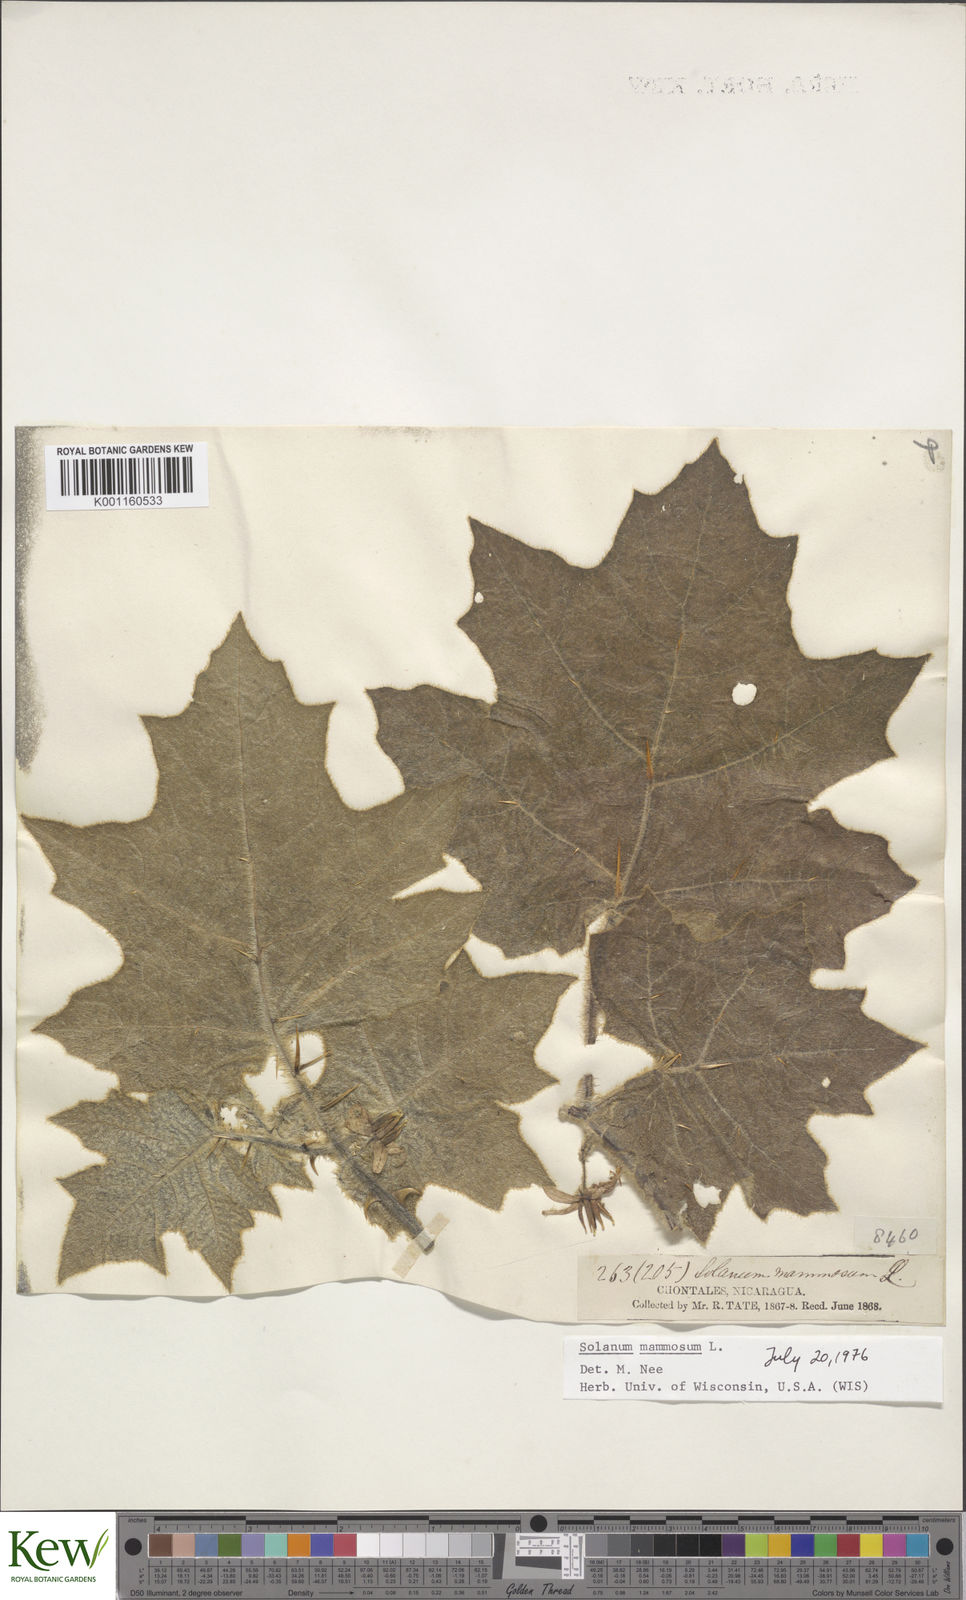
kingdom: Plantae
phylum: Tracheophyta
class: Magnoliopsida
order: Solanales
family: Solanaceae
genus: Solanum
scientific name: Solanum mammosum
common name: Nipple fruit
